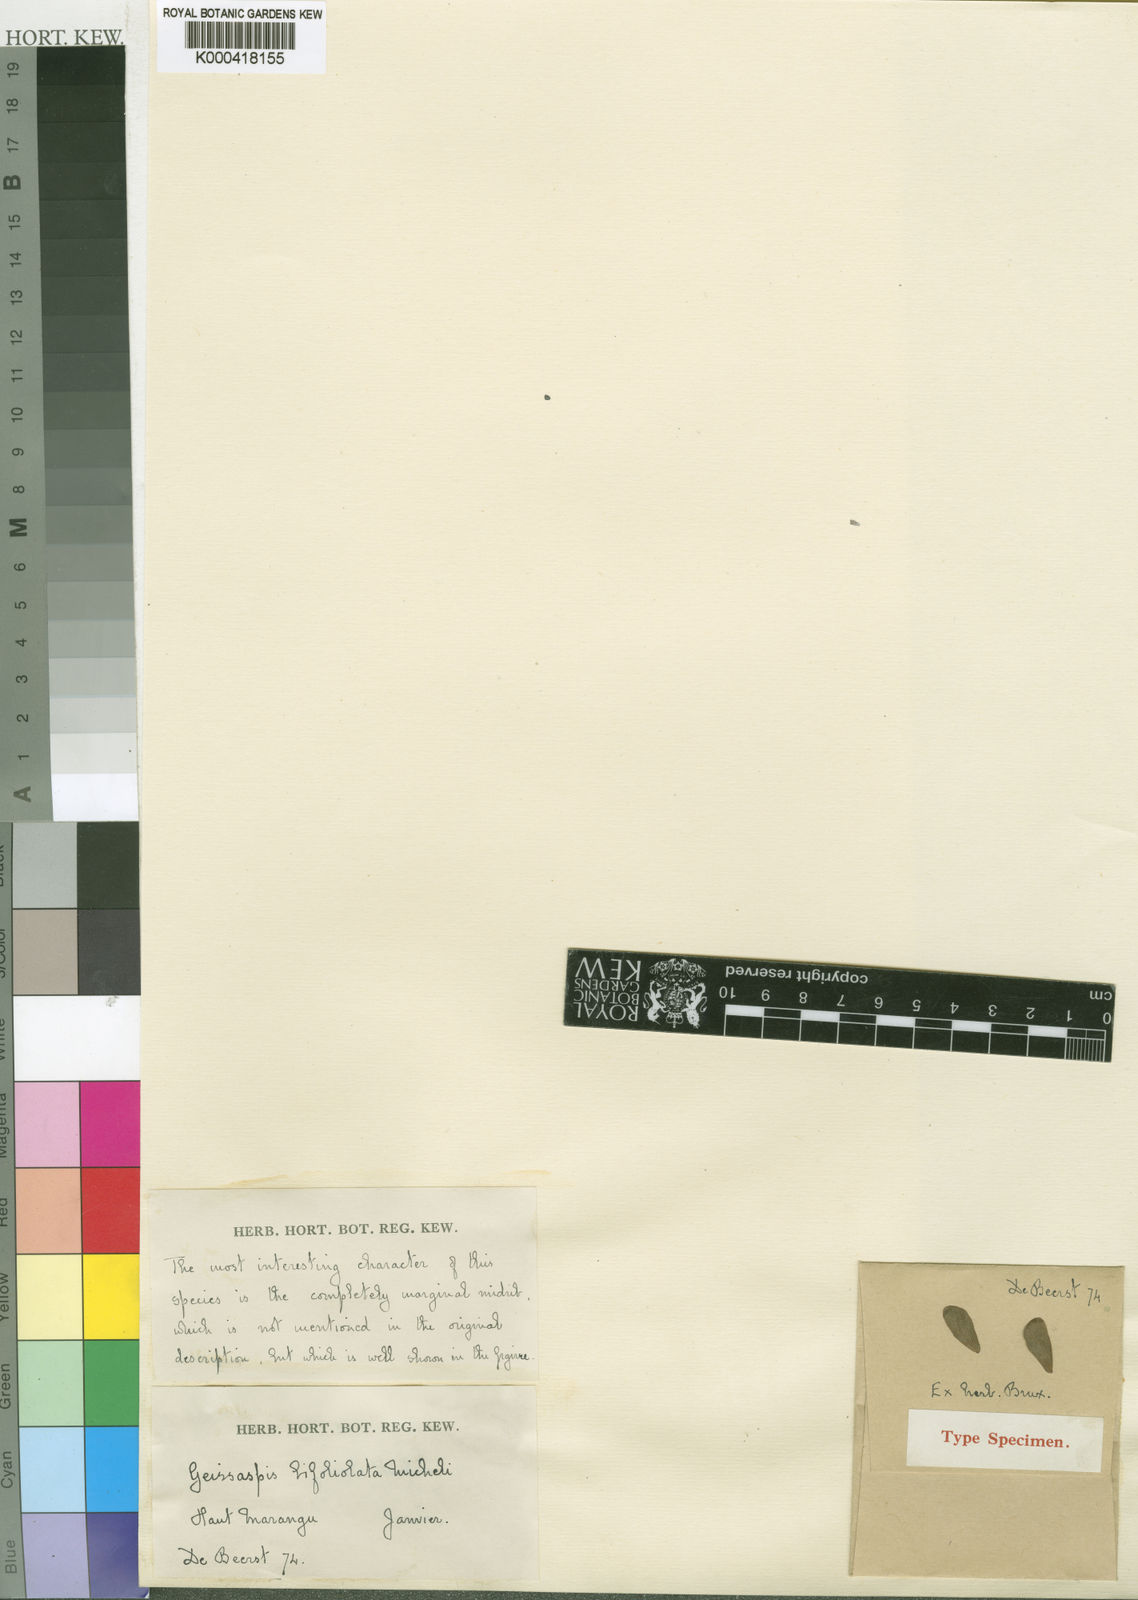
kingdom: Plantae
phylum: Tracheophyta
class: Magnoliopsida
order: Fabales
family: Fabaceae
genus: Humularia
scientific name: Humularia bifoliolata
